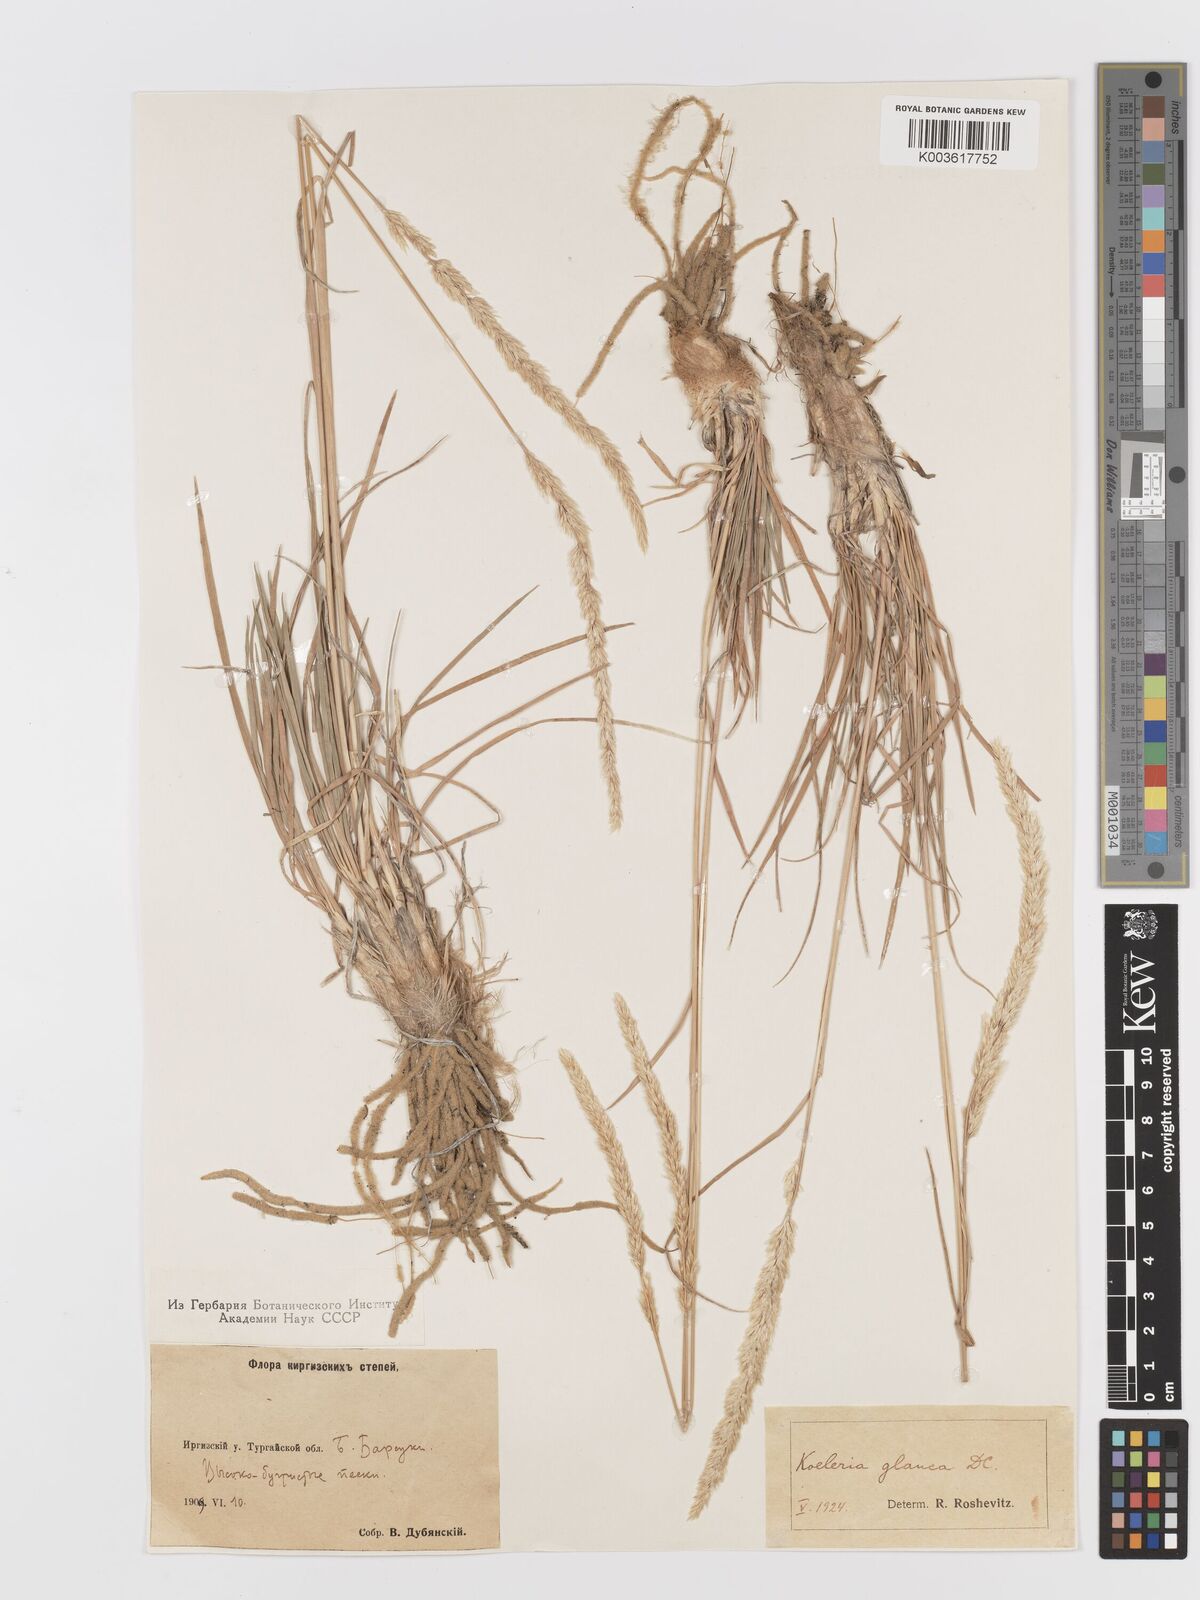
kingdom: Plantae
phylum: Tracheophyta
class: Liliopsida
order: Poales
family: Poaceae
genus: Koeleria
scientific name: Koeleria glauca
